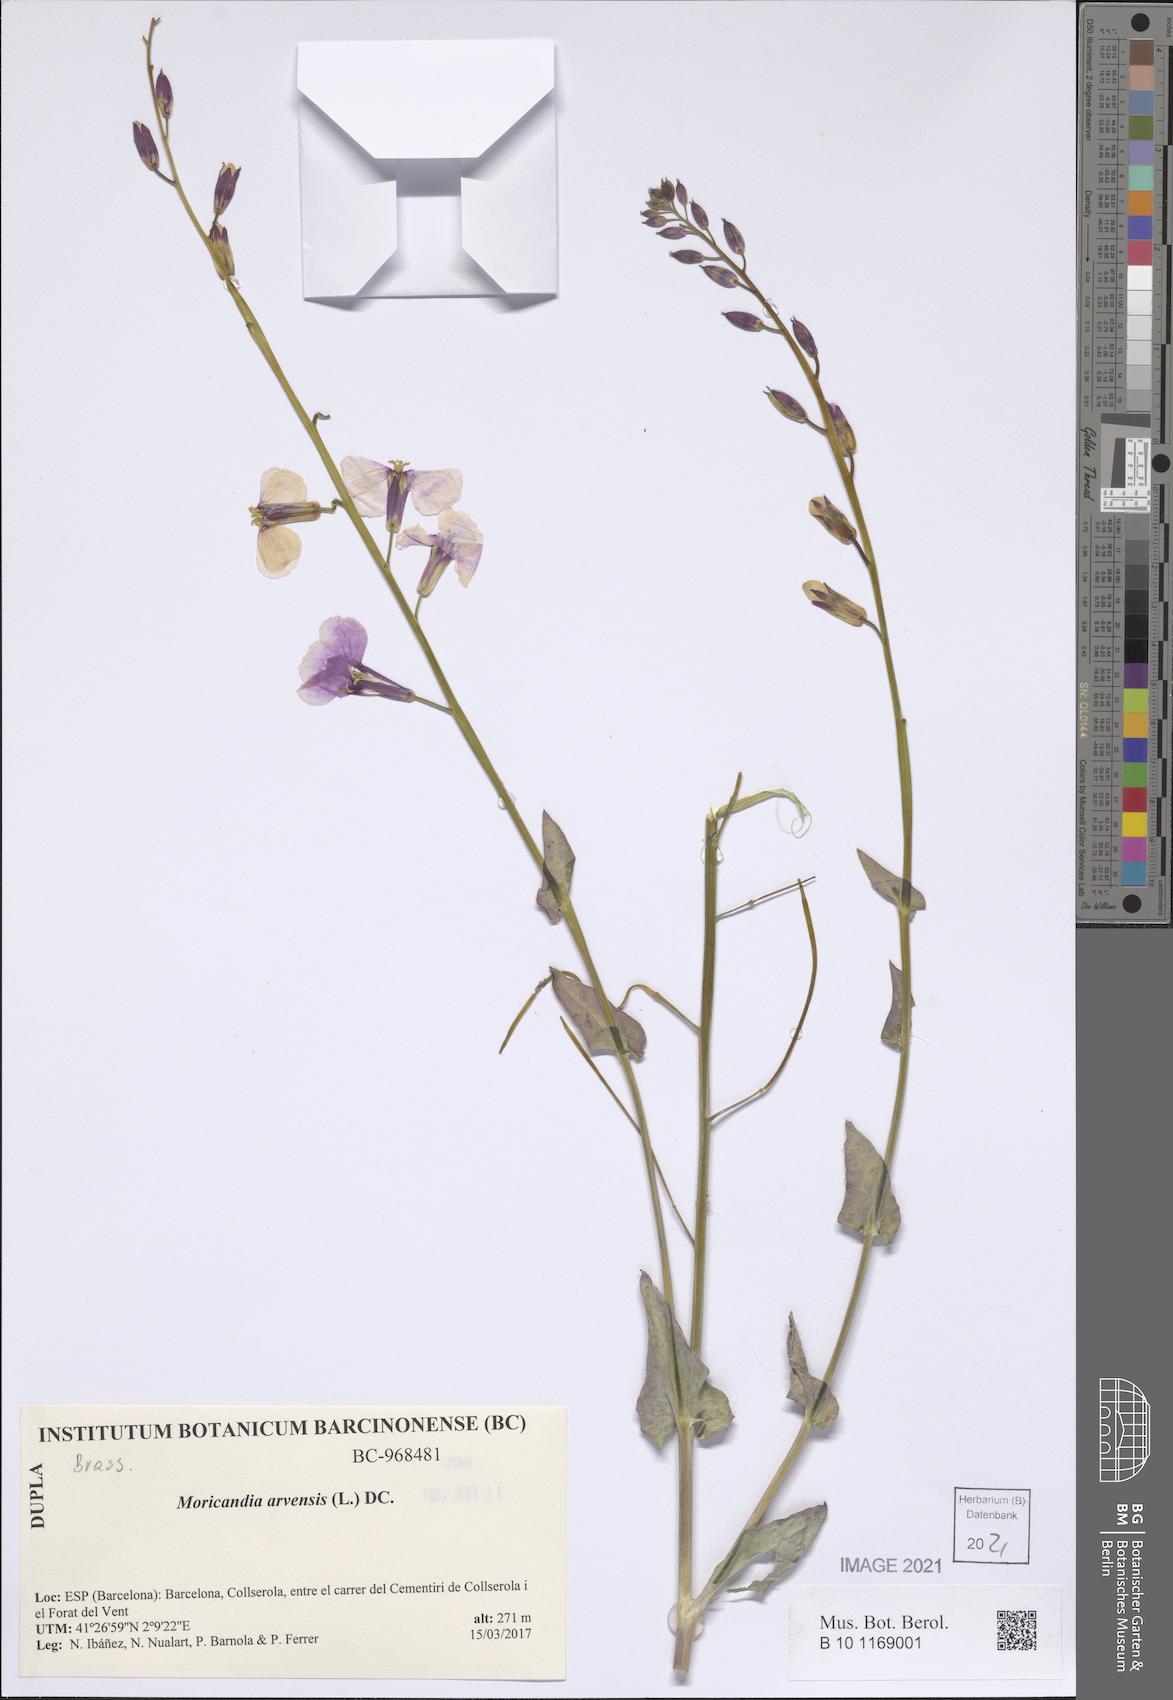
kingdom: Plantae
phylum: Tracheophyta
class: Magnoliopsida
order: Brassicales
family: Brassicaceae
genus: Moricandia
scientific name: Moricandia arvensis
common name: Purple mistress
